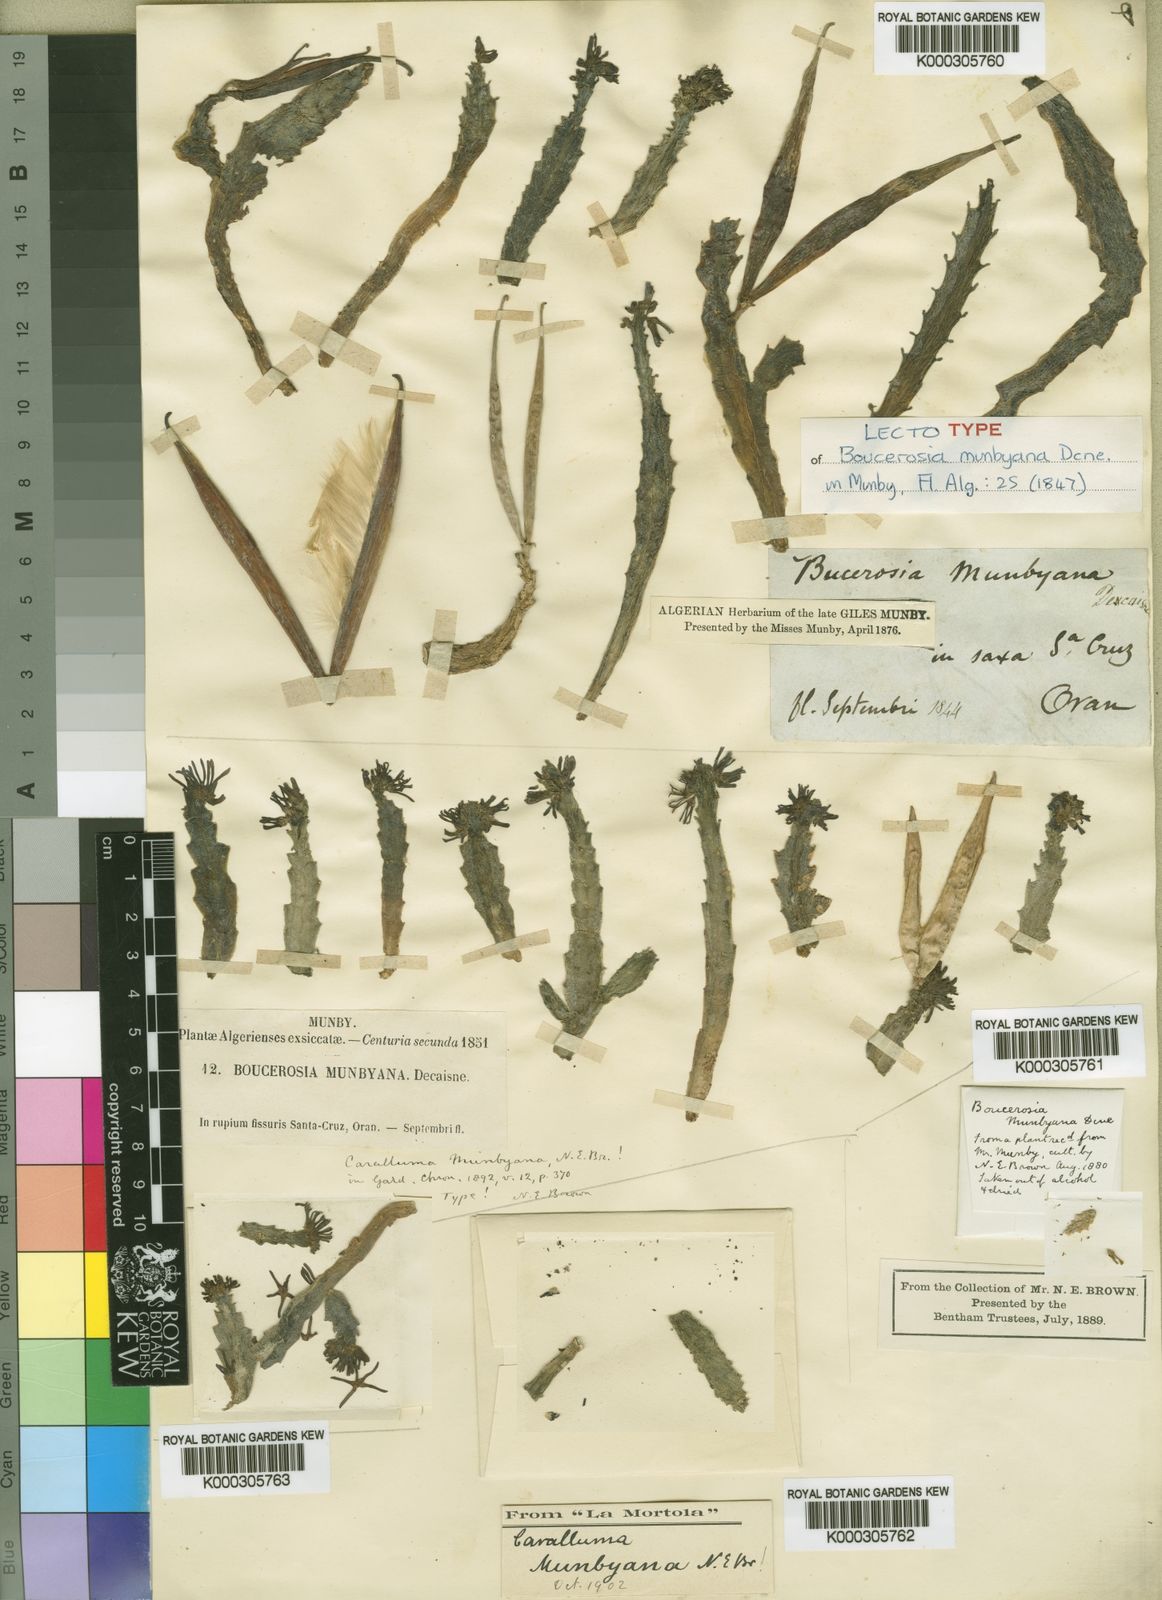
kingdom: Plantae
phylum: Tracheophyta
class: Magnoliopsida
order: Gentianales
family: Apocynaceae
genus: Ceropegia
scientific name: Ceropegia munbyana
